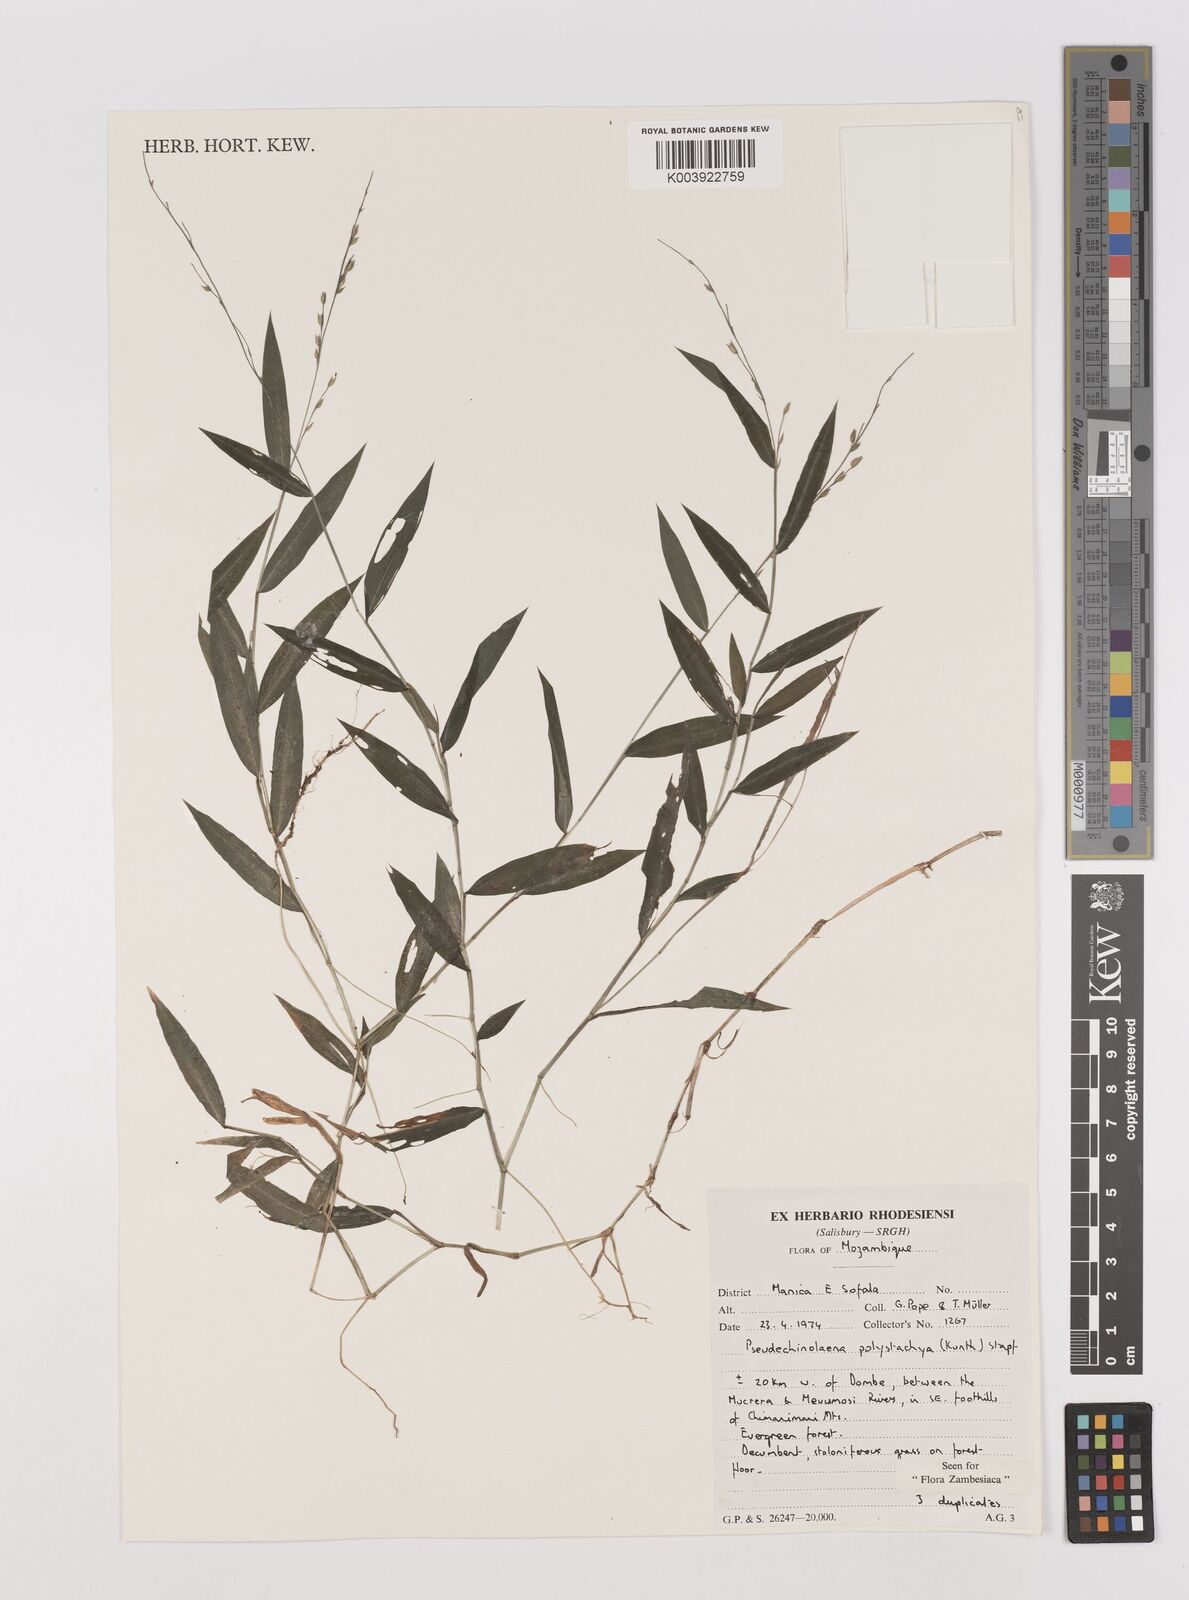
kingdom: Plantae
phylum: Tracheophyta
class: Liliopsida
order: Poales
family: Poaceae
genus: Pseudechinolaena
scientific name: Pseudechinolaena polystachya
